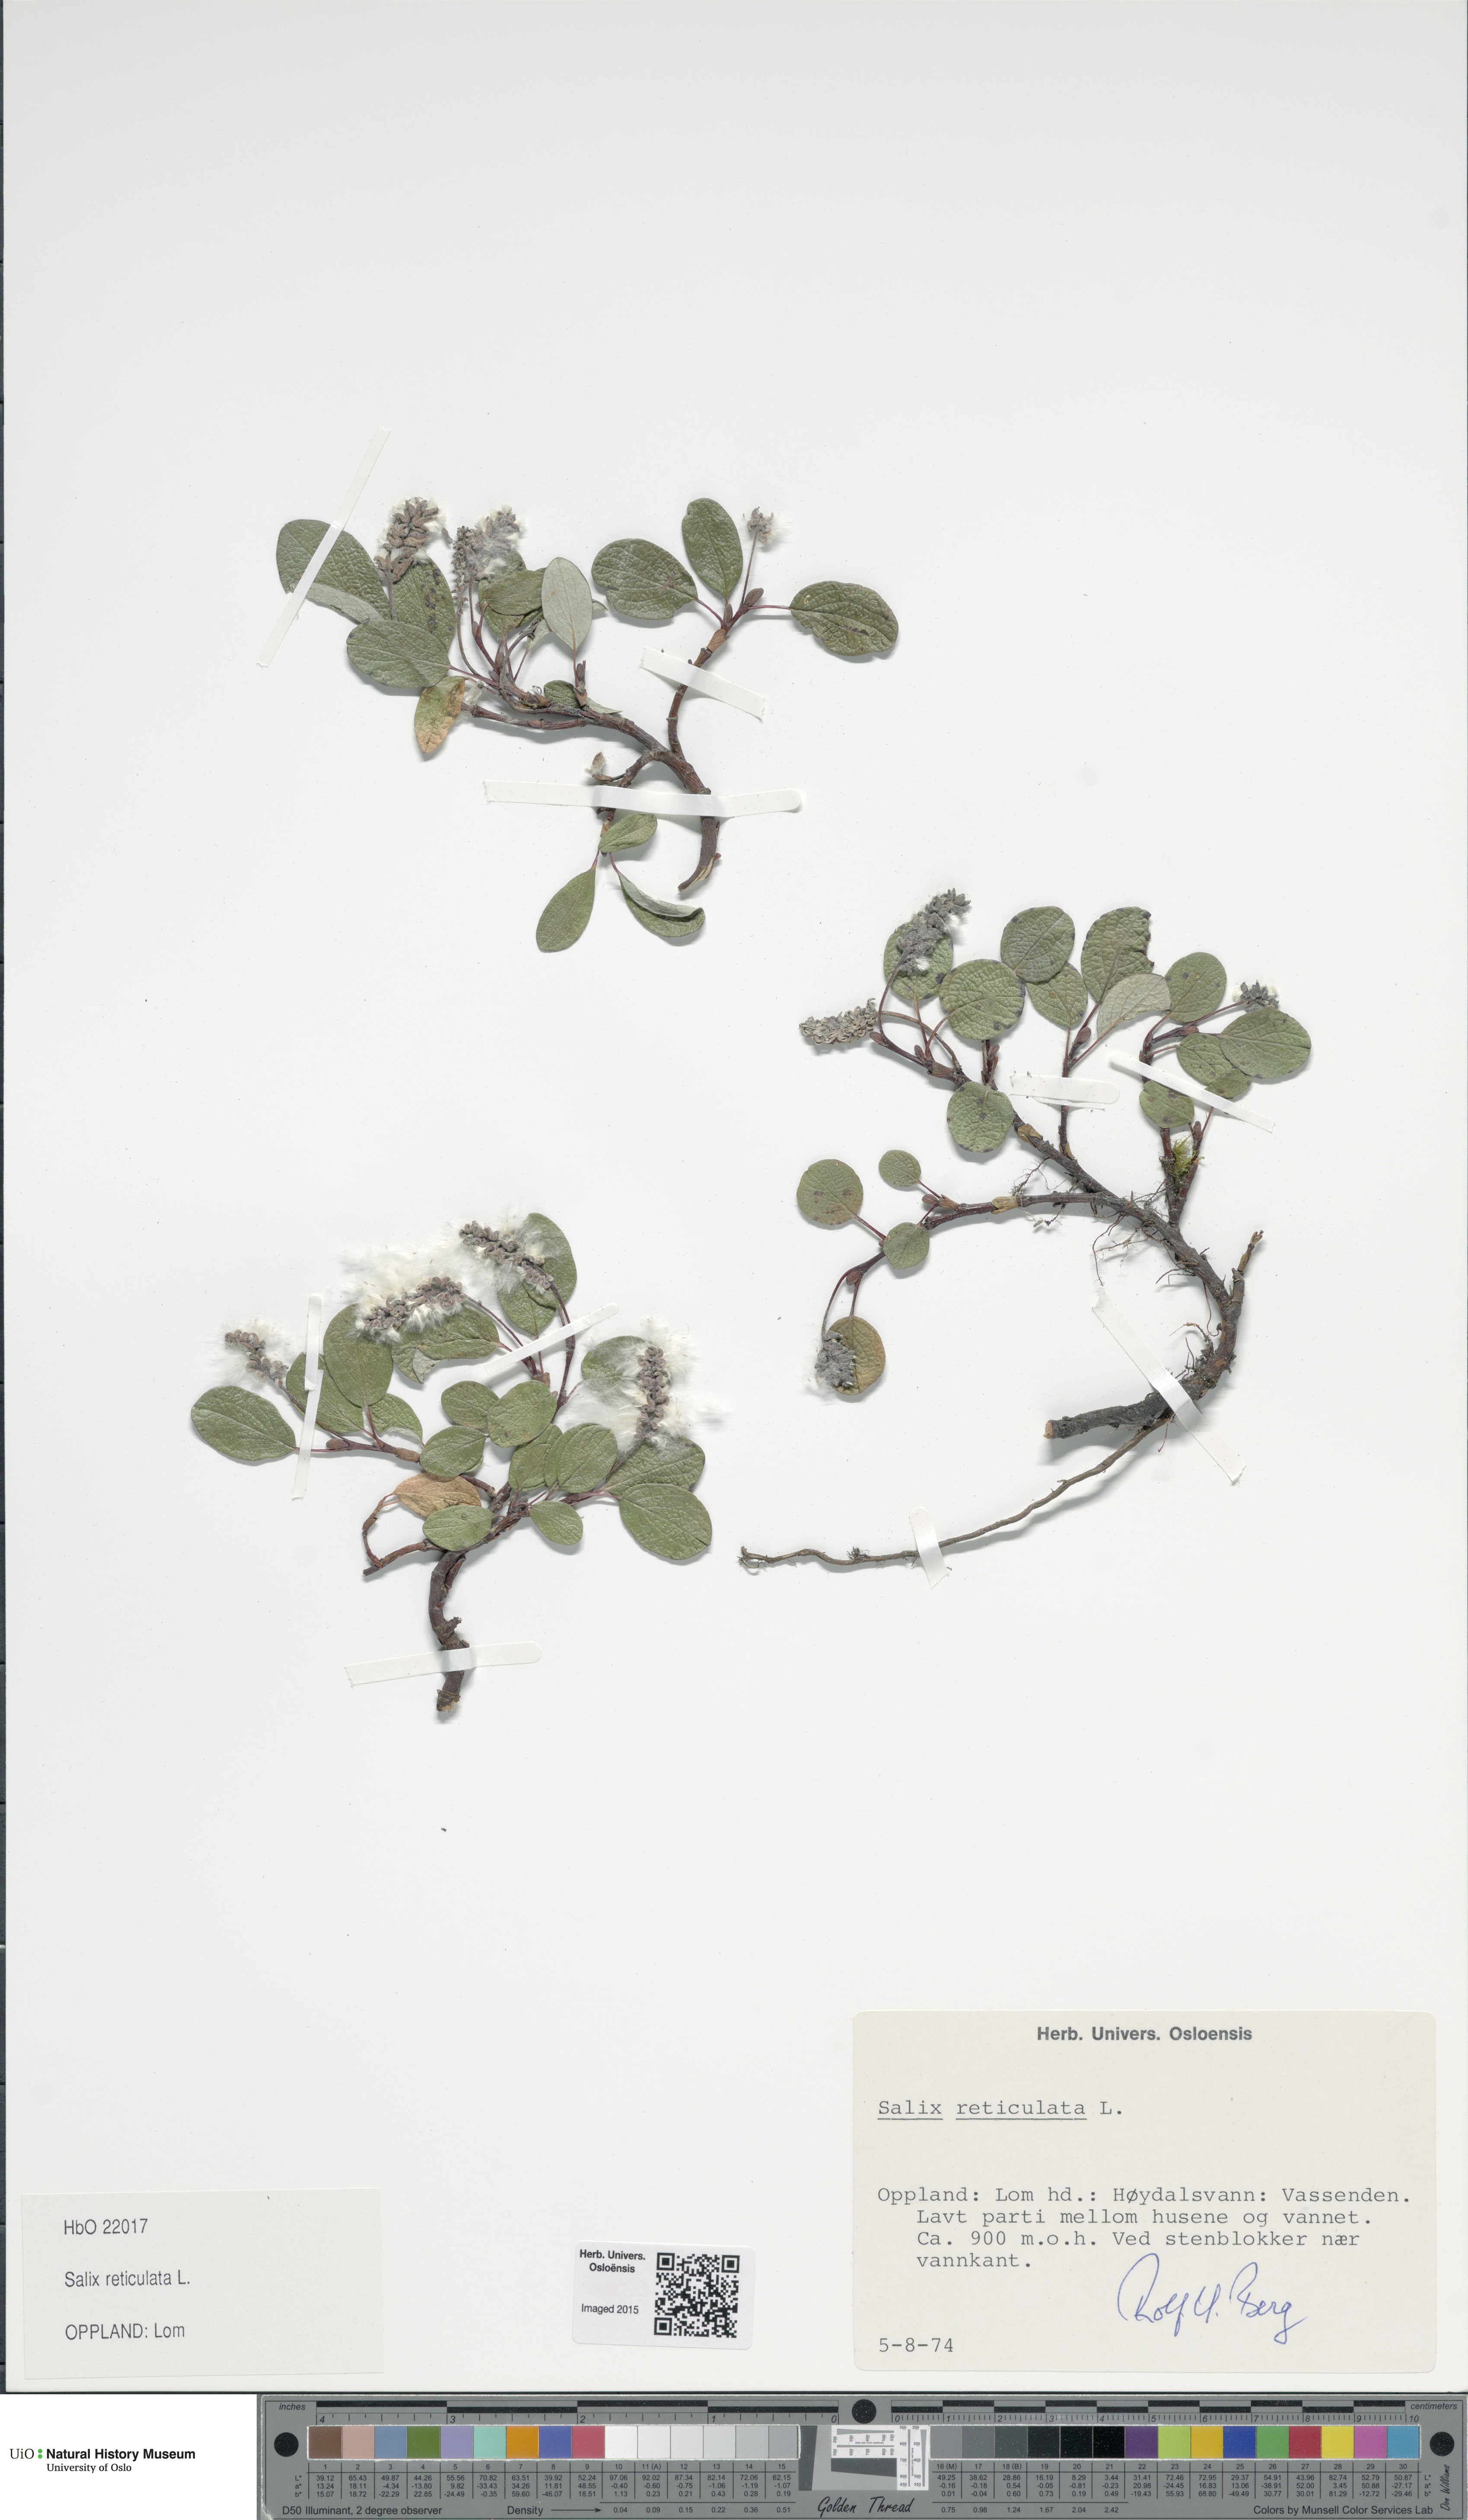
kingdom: Plantae
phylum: Tracheophyta
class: Magnoliopsida
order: Malpighiales
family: Salicaceae
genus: Salix
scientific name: Salix reticulata
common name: Net-leaved willow
